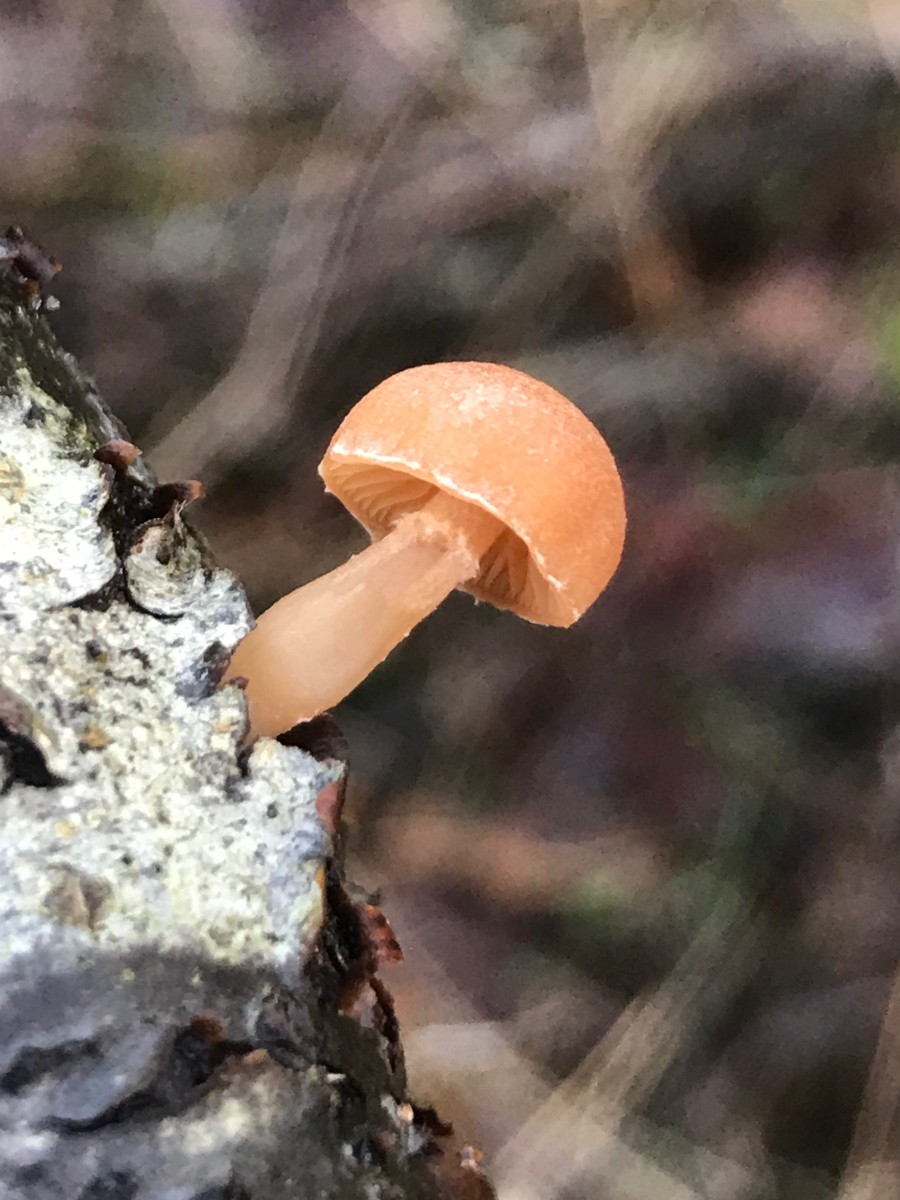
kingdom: Fungi
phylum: Basidiomycota
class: Agaricomycetes
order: Agaricales
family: Tubariaceae
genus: Tubaria
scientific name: Tubaria furfuracea
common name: kliddet fnughat
